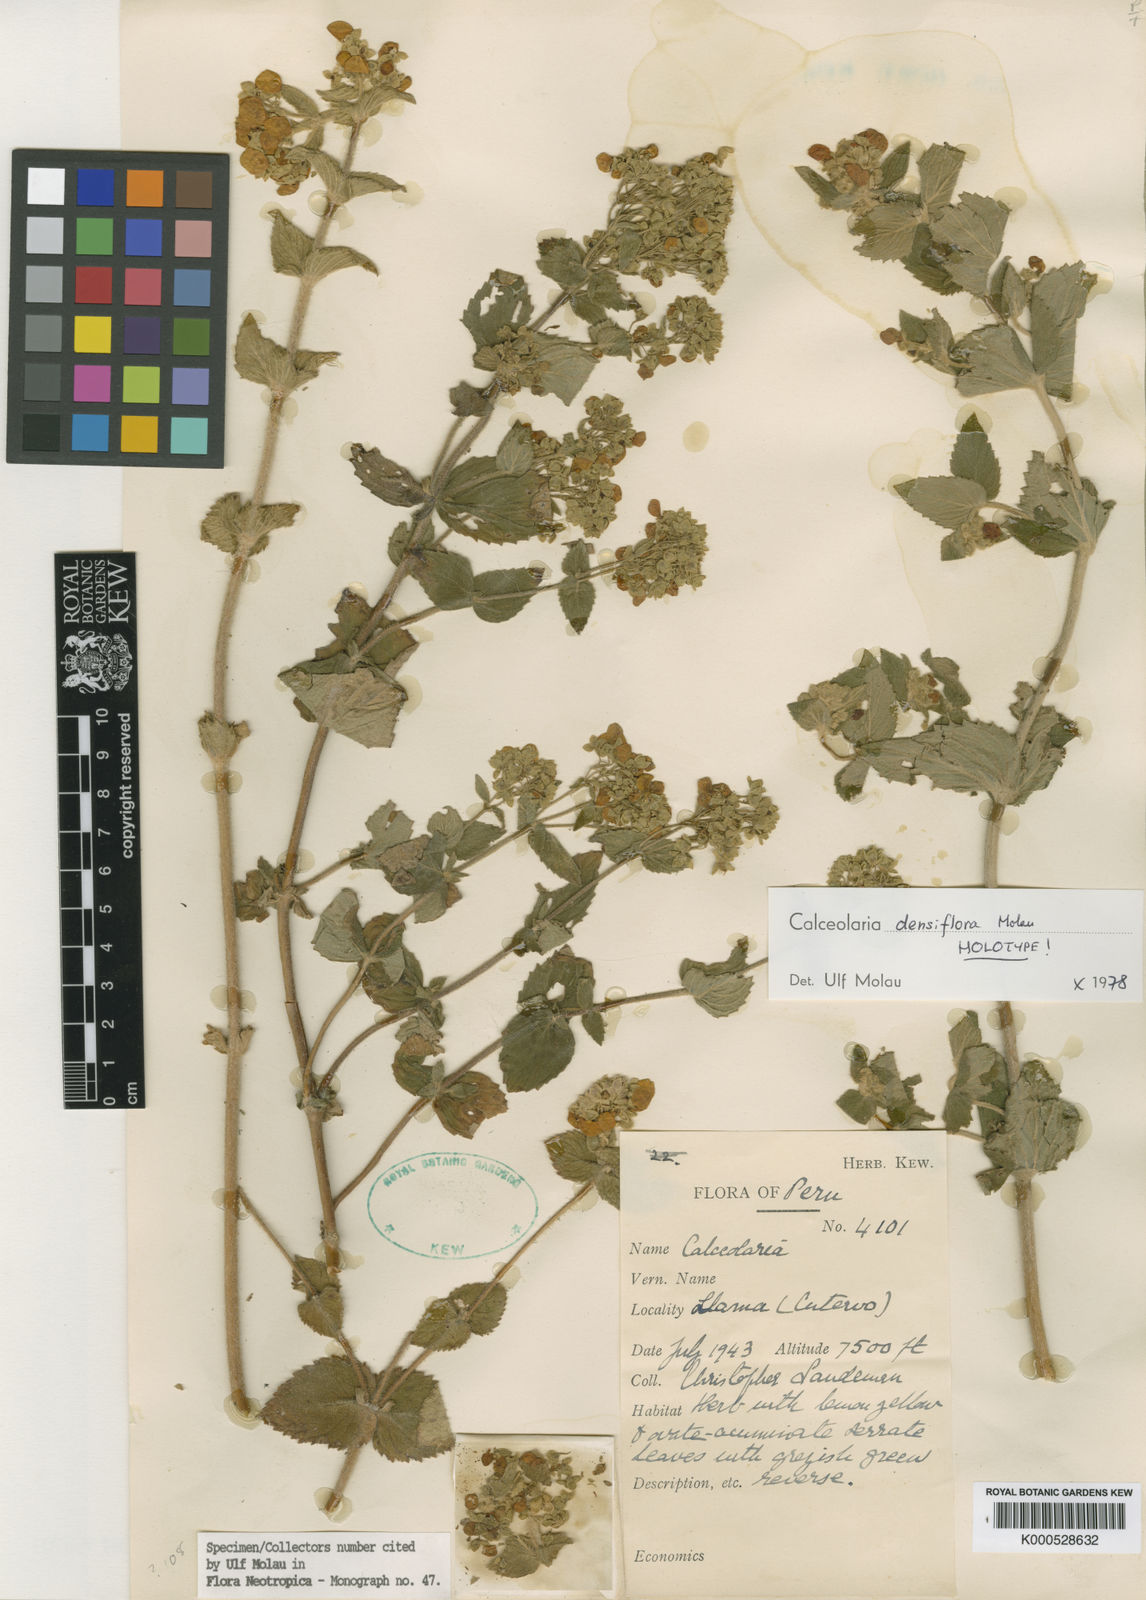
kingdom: Plantae
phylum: Tracheophyta
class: Magnoliopsida
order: Lamiales
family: Calceolariaceae
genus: Calceolaria
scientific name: Calceolaria densiflora
